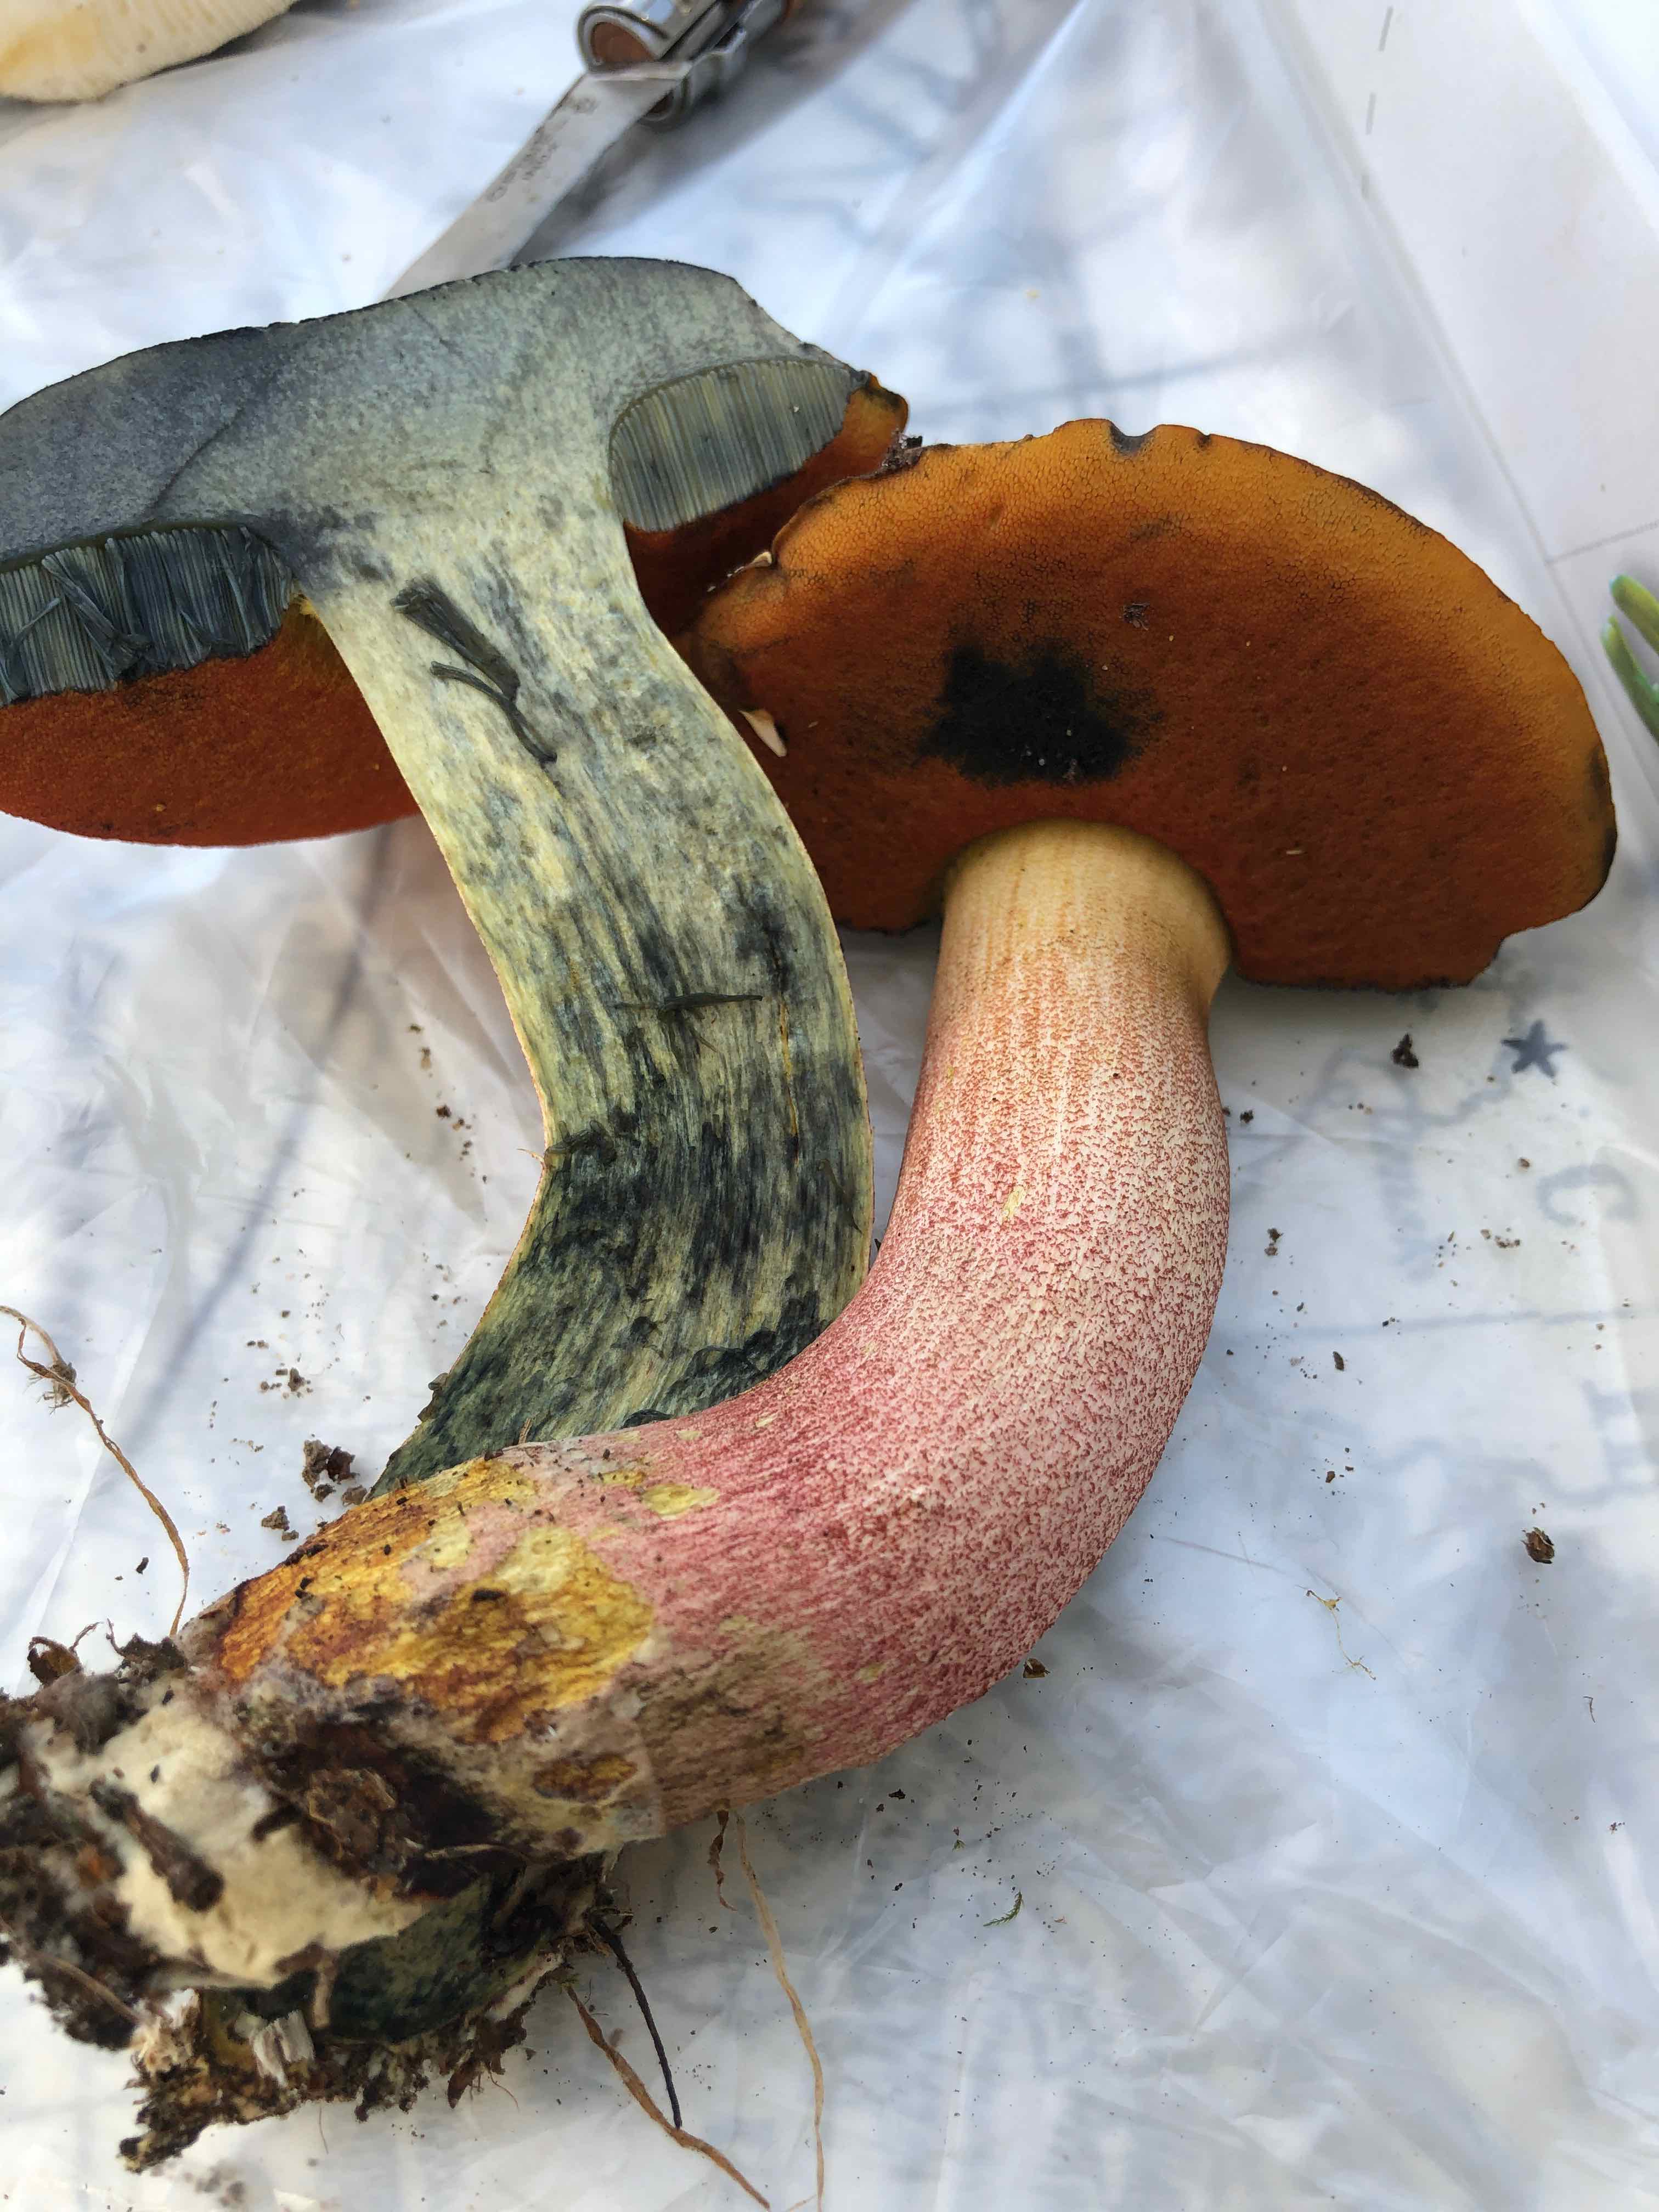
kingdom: Fungi
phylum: Basidiomycota
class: Agaricomycetes
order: Boletales
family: Boletaceae
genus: Neoboletus
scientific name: Neoboletus erythropus
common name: punktstokket indigorørhat
